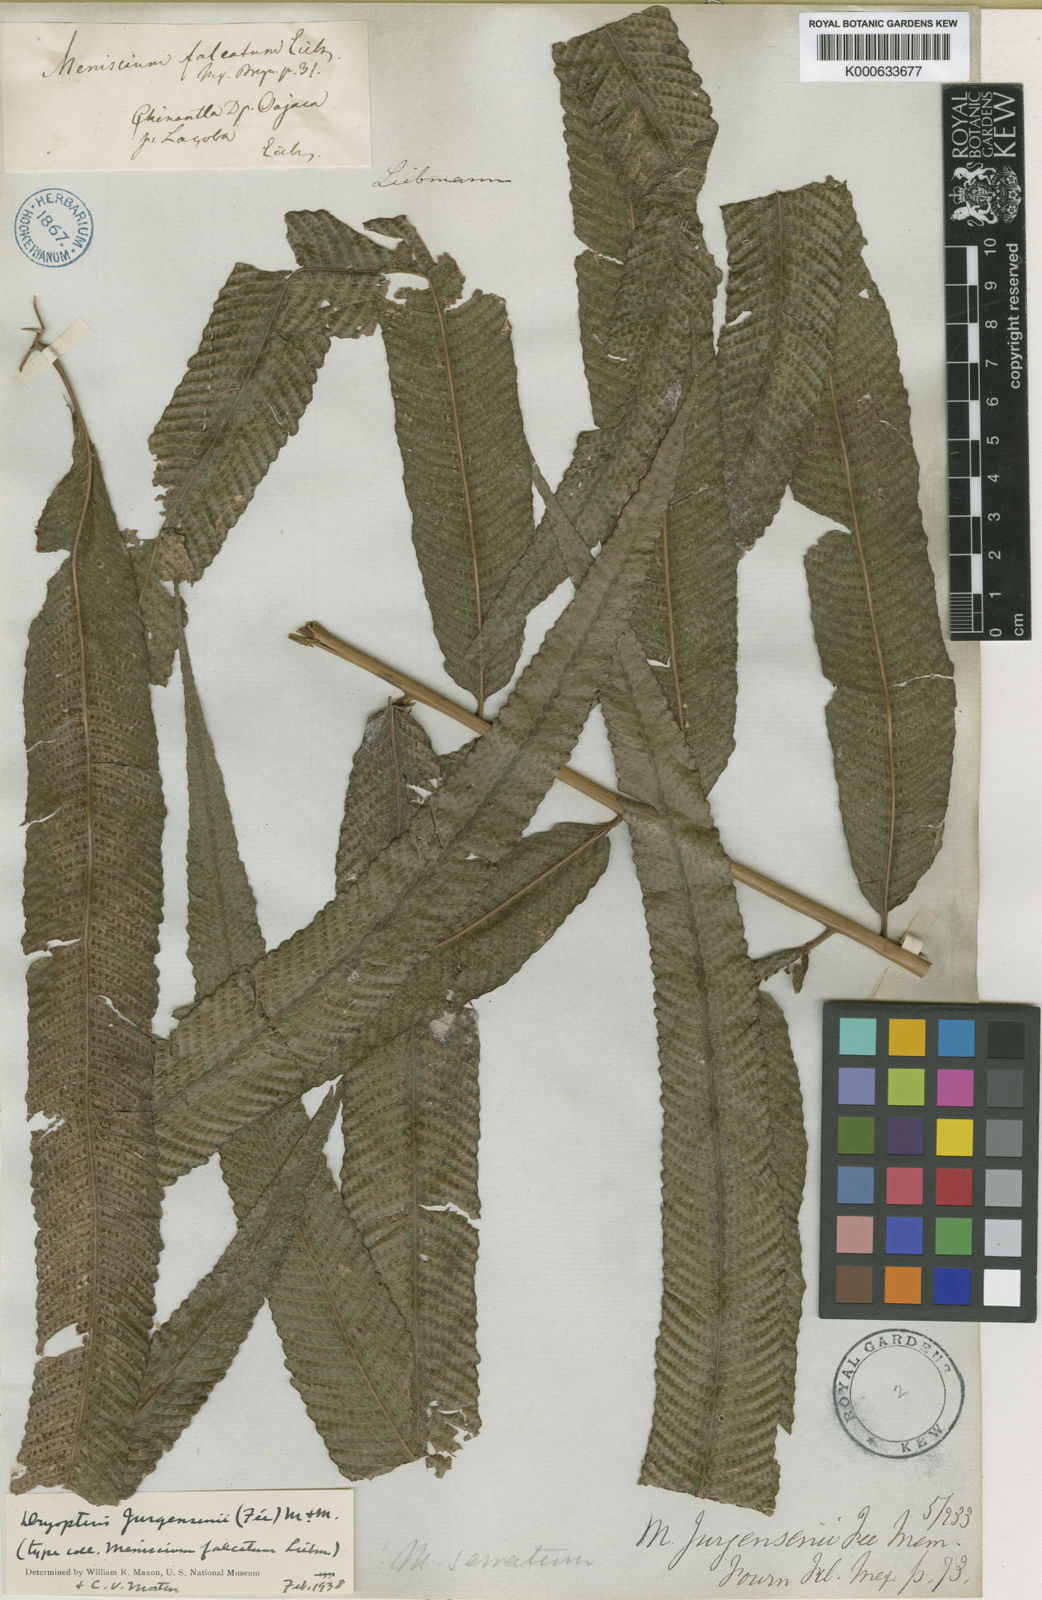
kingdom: Plantae
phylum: Tracheophyta
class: Polypodiopsida
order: Polypodiales
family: Thelypteridaceae
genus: Meniscium
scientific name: Meniscium
